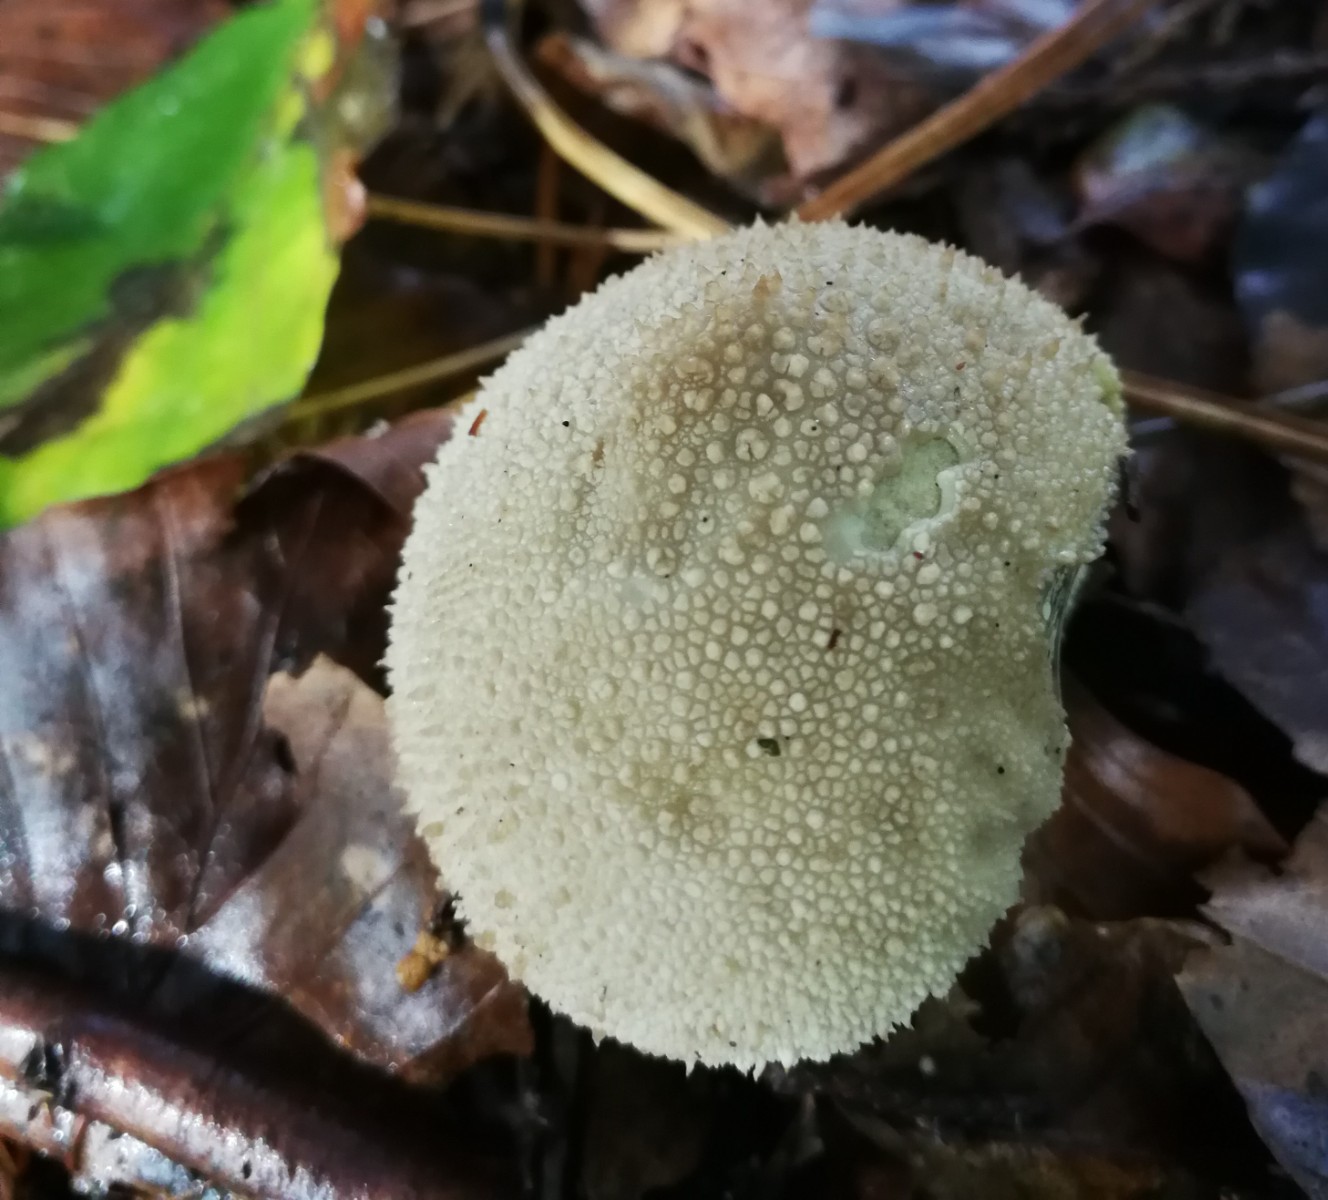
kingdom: Fungi
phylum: Basidiomycota
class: Agaricomycetes
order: Agaricales
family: Lycoperdaceae
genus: Lycoperdon
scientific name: Lycoperdon perlatum
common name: krystal-støvbold
